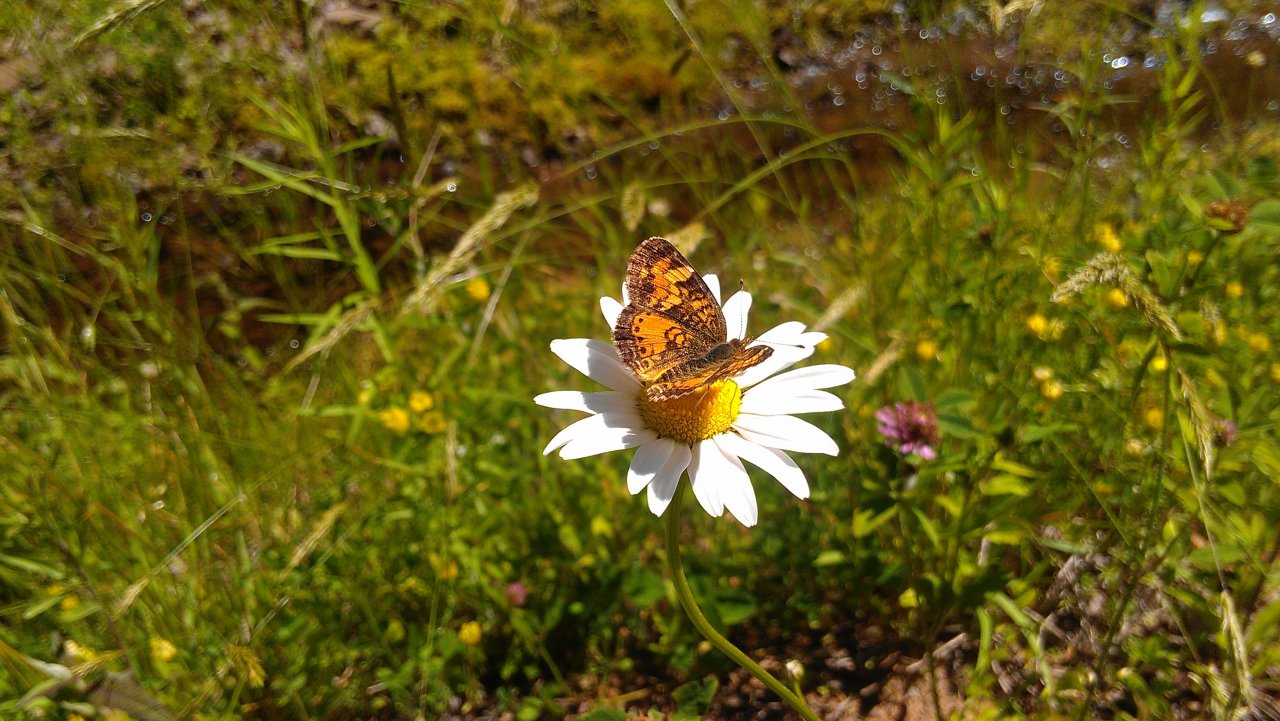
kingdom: Animalia
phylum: Arthropoda
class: Insecta
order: Lepidoptera
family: Nymphalidae
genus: Phyciodes
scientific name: Phyciodes tharos
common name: Northern Crescent
